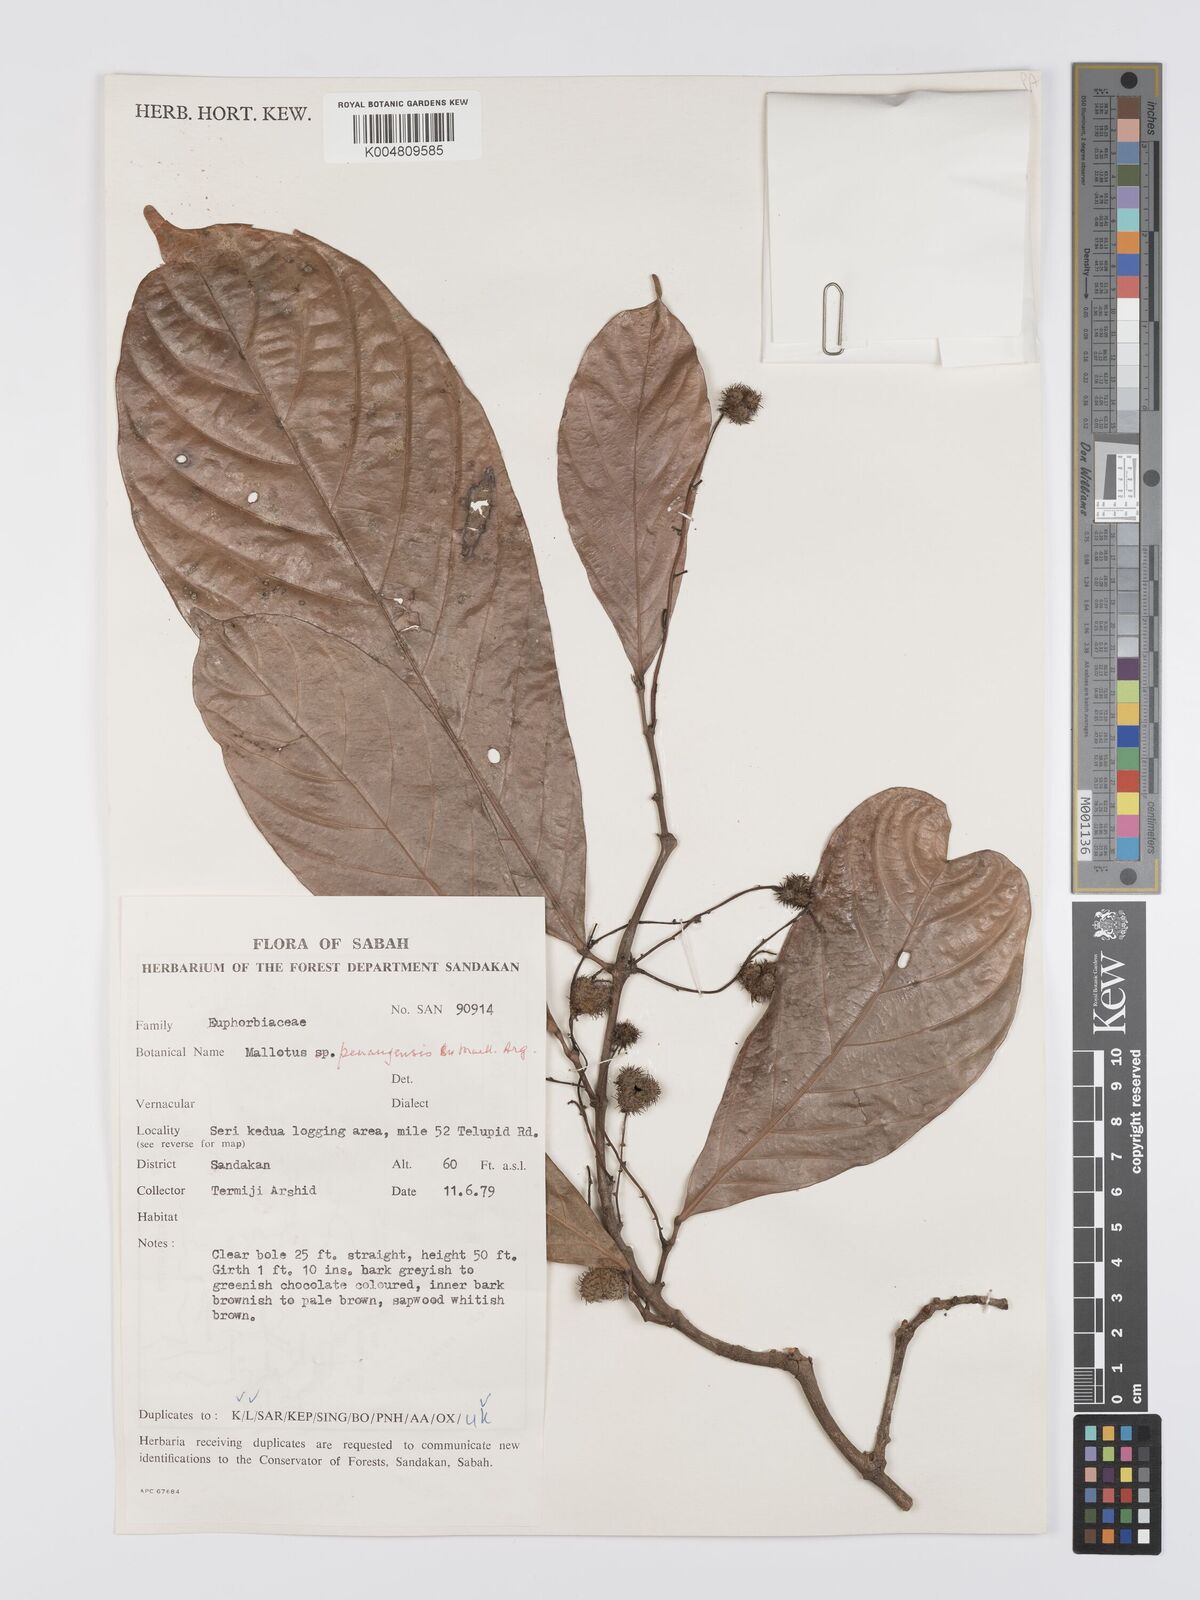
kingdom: Plantae
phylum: Tracheophyta
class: Magnoliopsida
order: Malpighiales
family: Euphorbiaceae
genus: Hancea
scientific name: Hancea penangensis
